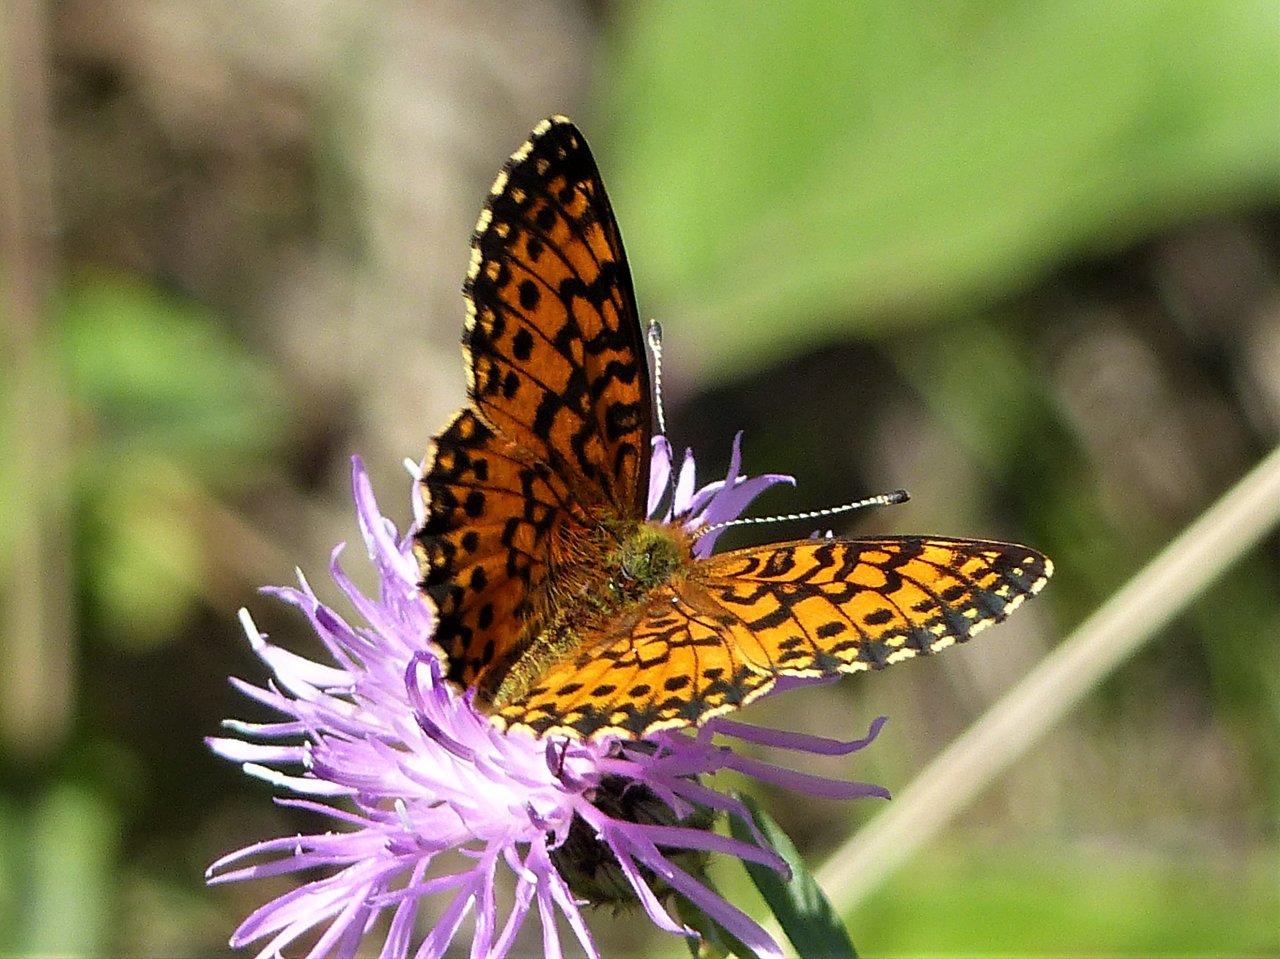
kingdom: Animalia
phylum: Arthropoda
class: Insecta
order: Lepidoptera
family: Nymphalidae
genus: Boloria
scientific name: Boloria selene
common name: Silver-bordered Fritillary
